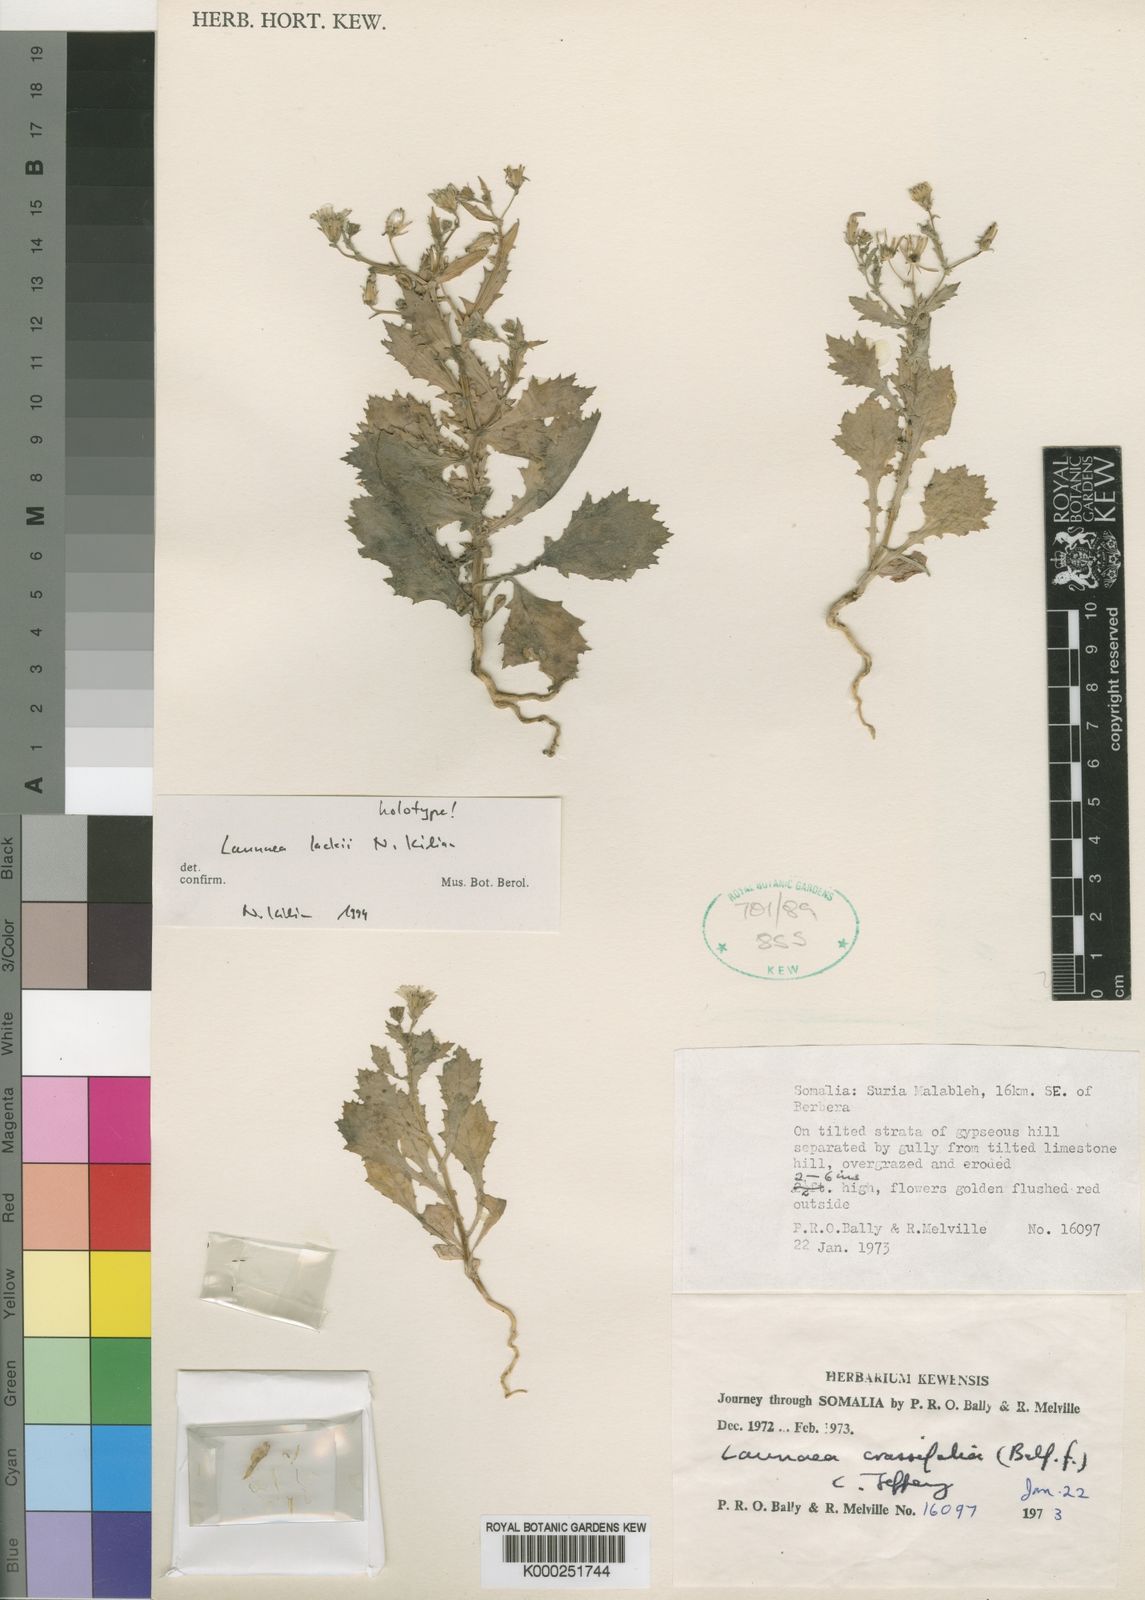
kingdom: Plantae
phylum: Tracheophyta
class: Magnoliopsida
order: Asterales
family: Asteraceae
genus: Launaea
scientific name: Launaea lackii
